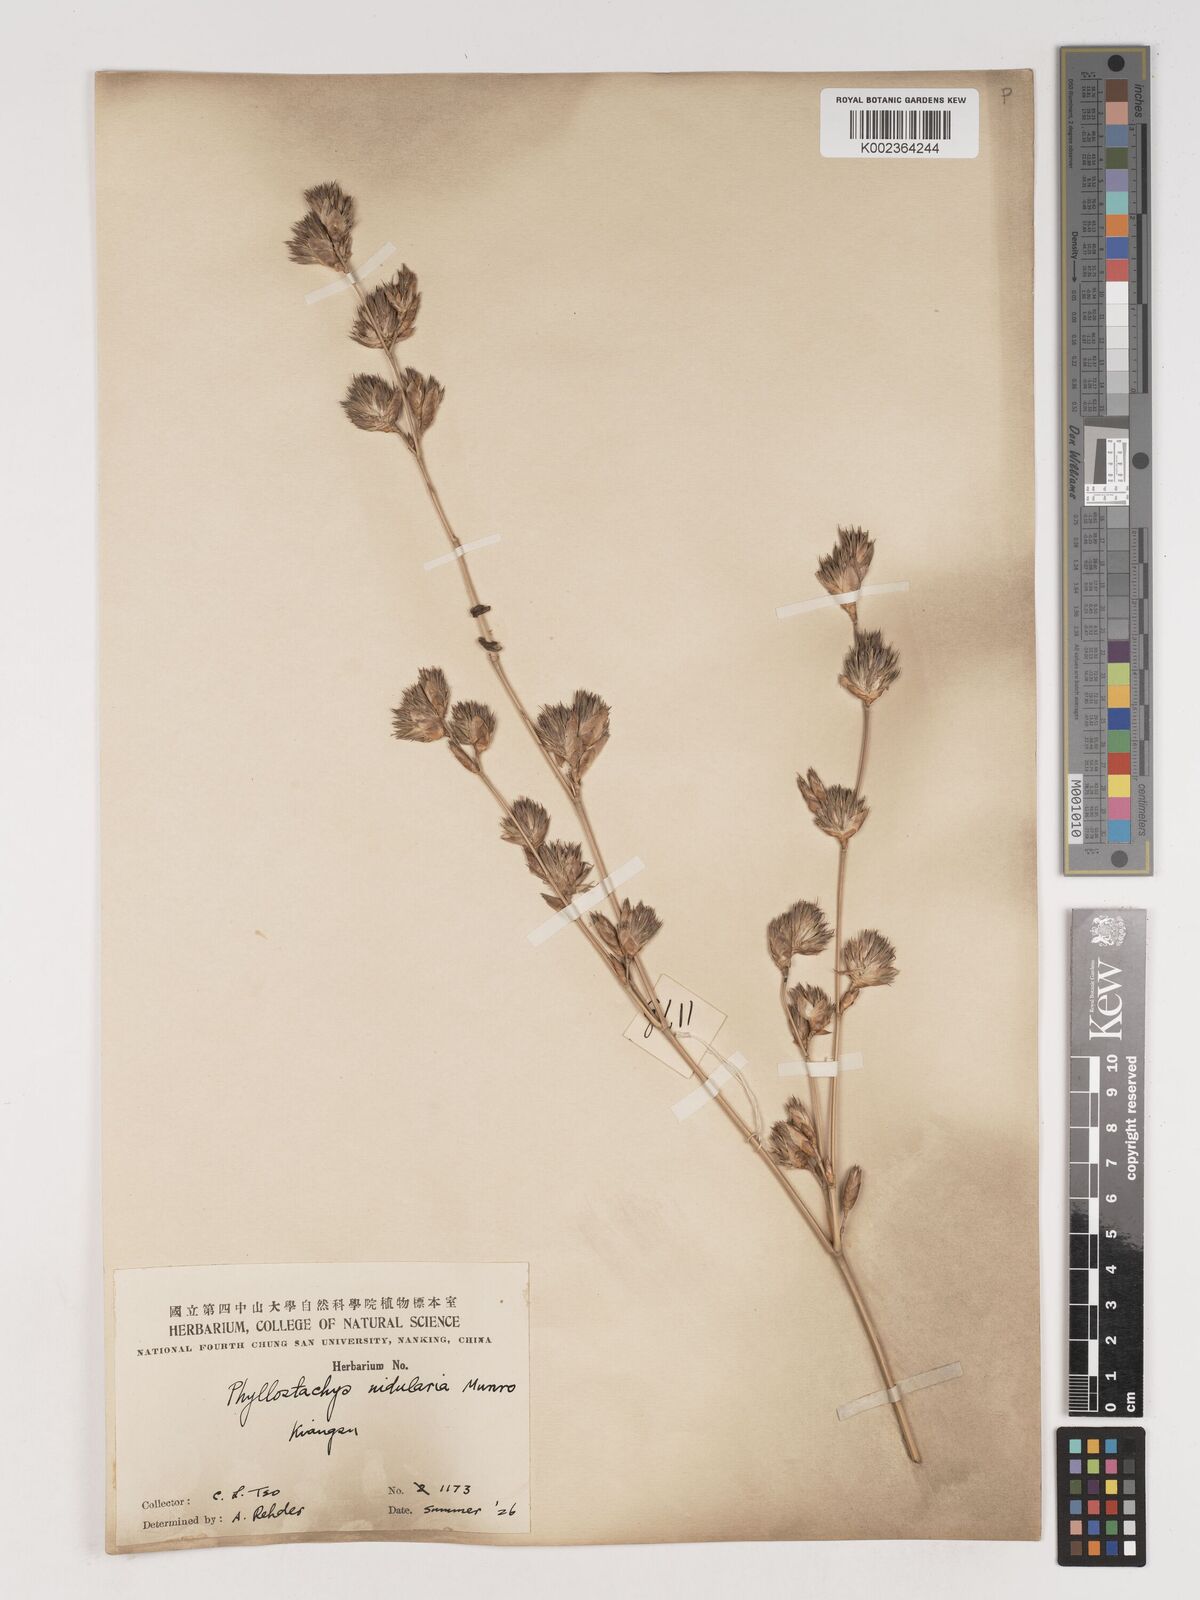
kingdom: Plantae
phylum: Tracheophyta
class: Liliopsida
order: Poales
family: Poaceae
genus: Phyllostachys
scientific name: Phyllostachys nidularia
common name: Broom bamboo
